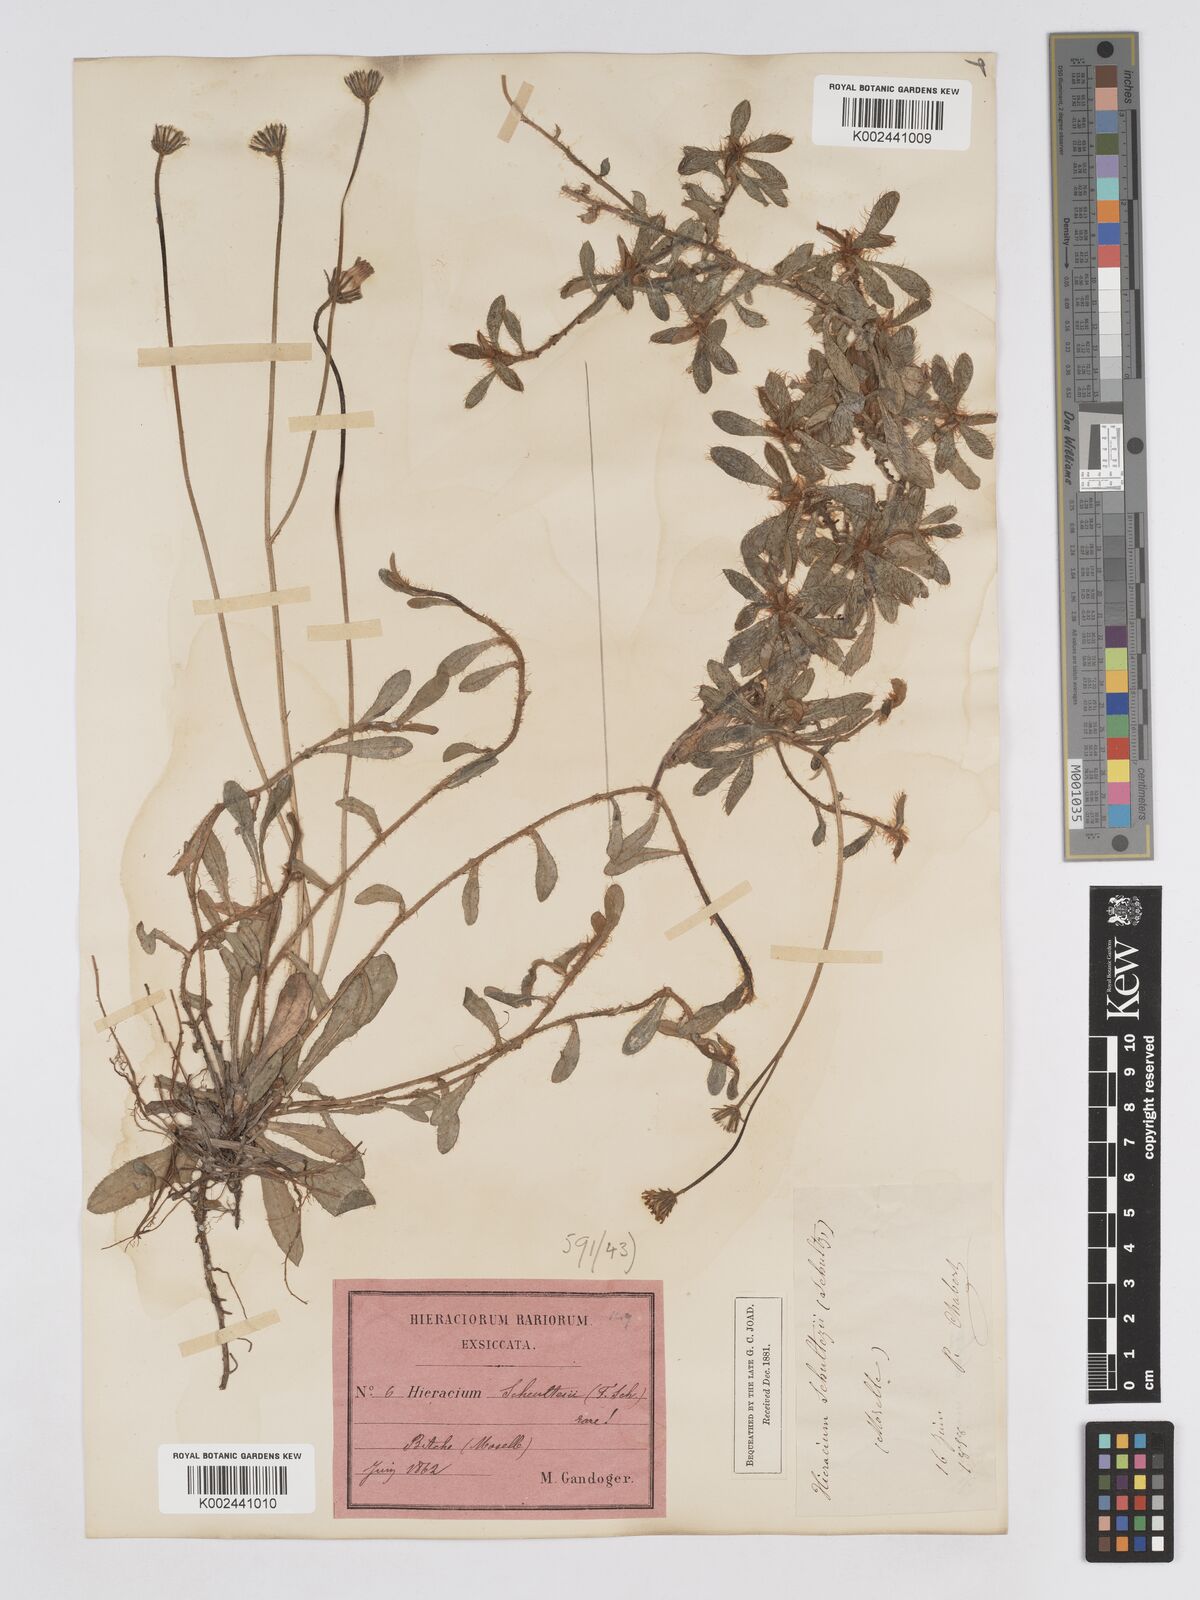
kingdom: Plantae
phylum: Tracheophyta
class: Magnoliopsida
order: Asterales
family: Asteraceae
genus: Pilosella
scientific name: Pilosella schultesii
